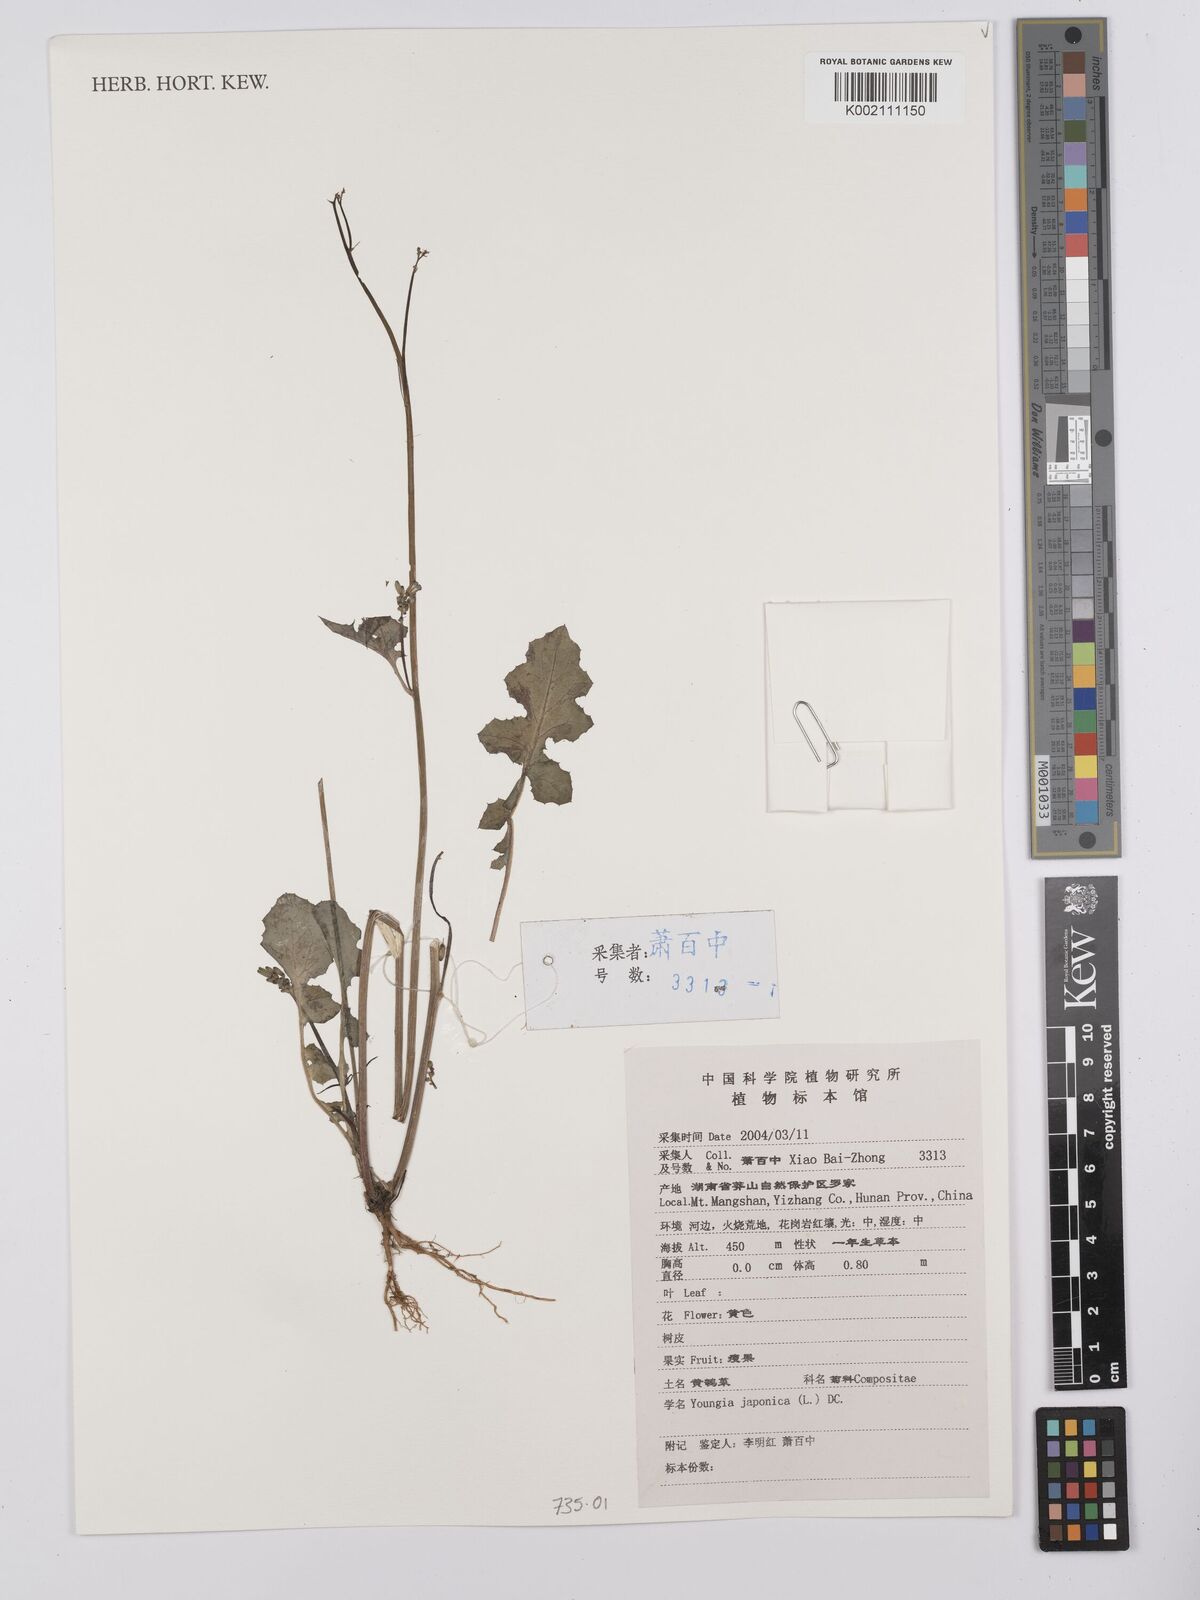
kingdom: Plantae
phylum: Tracheophyta
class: Magnoliopsida
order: Asterales
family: Asteraceae
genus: Youngia
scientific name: Youngia japonica
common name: Oriental false hawksbeard
